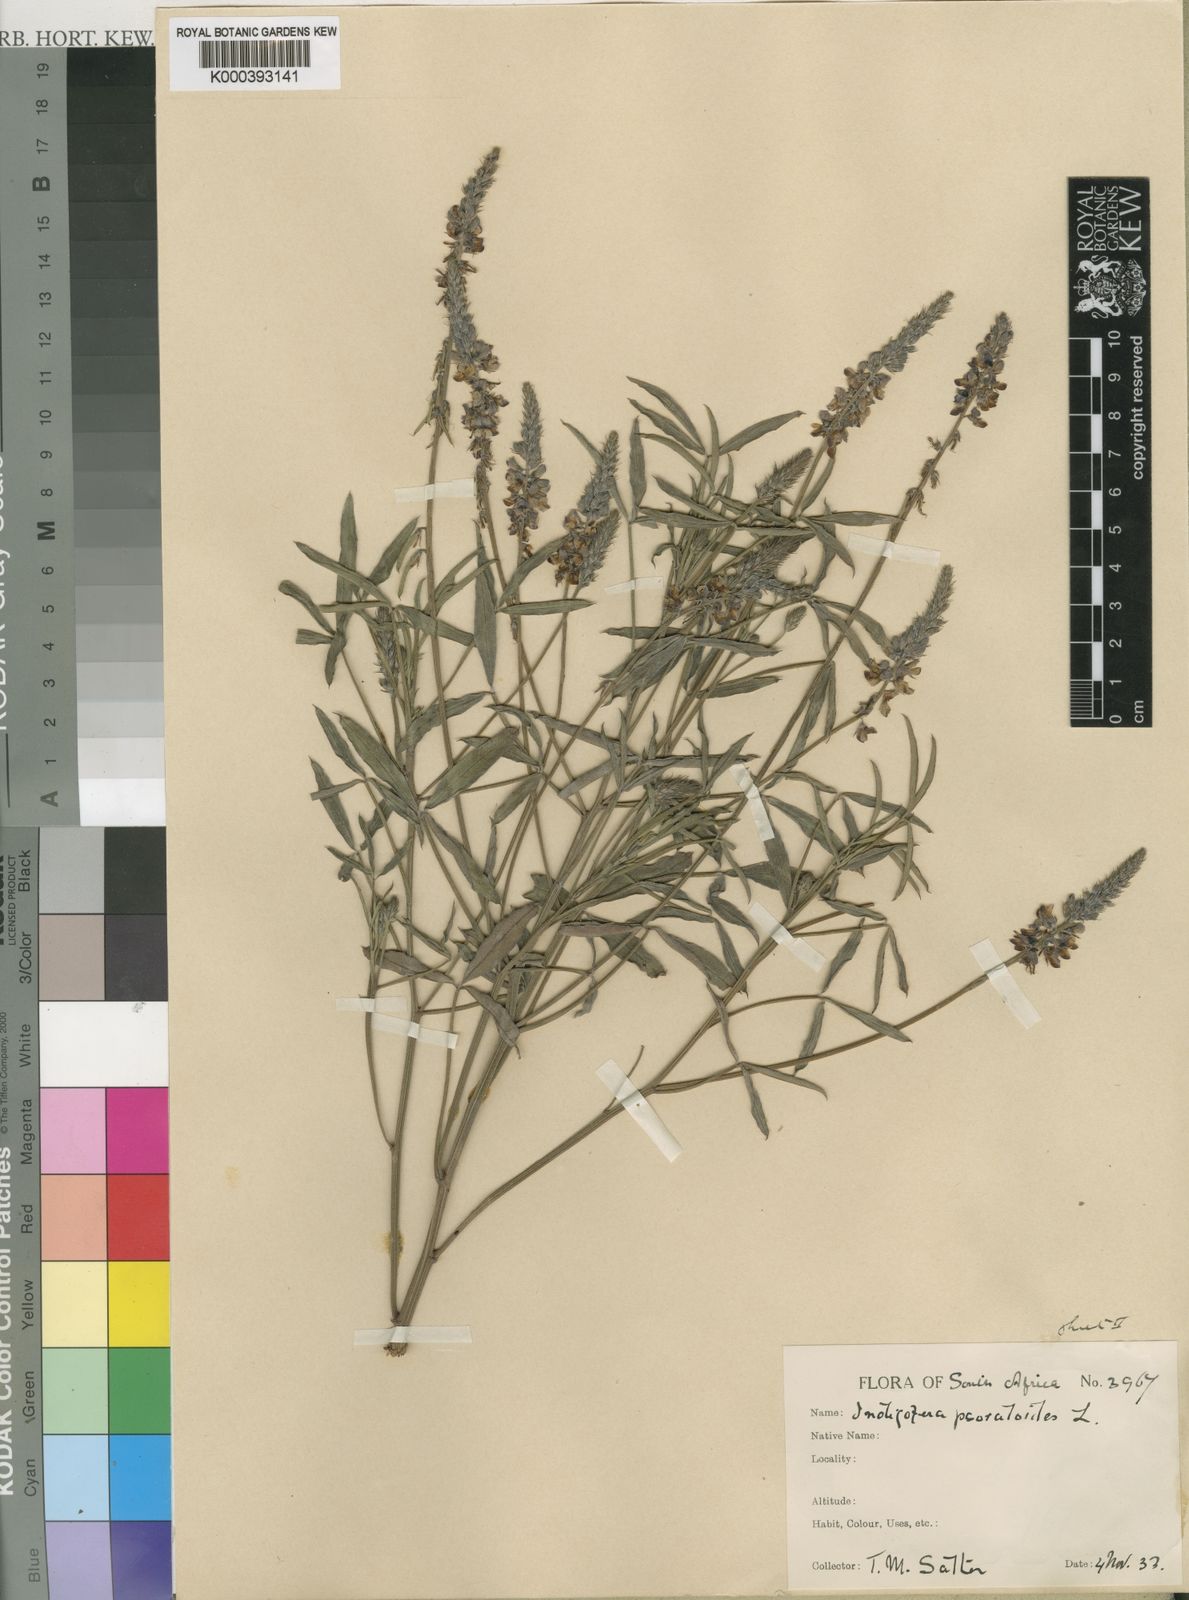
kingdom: Plantae
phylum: Tracheophyta
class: Magnoliopsida
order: Fabales
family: Fabaceae
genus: Indigofera
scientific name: Indigofera psoraloides
